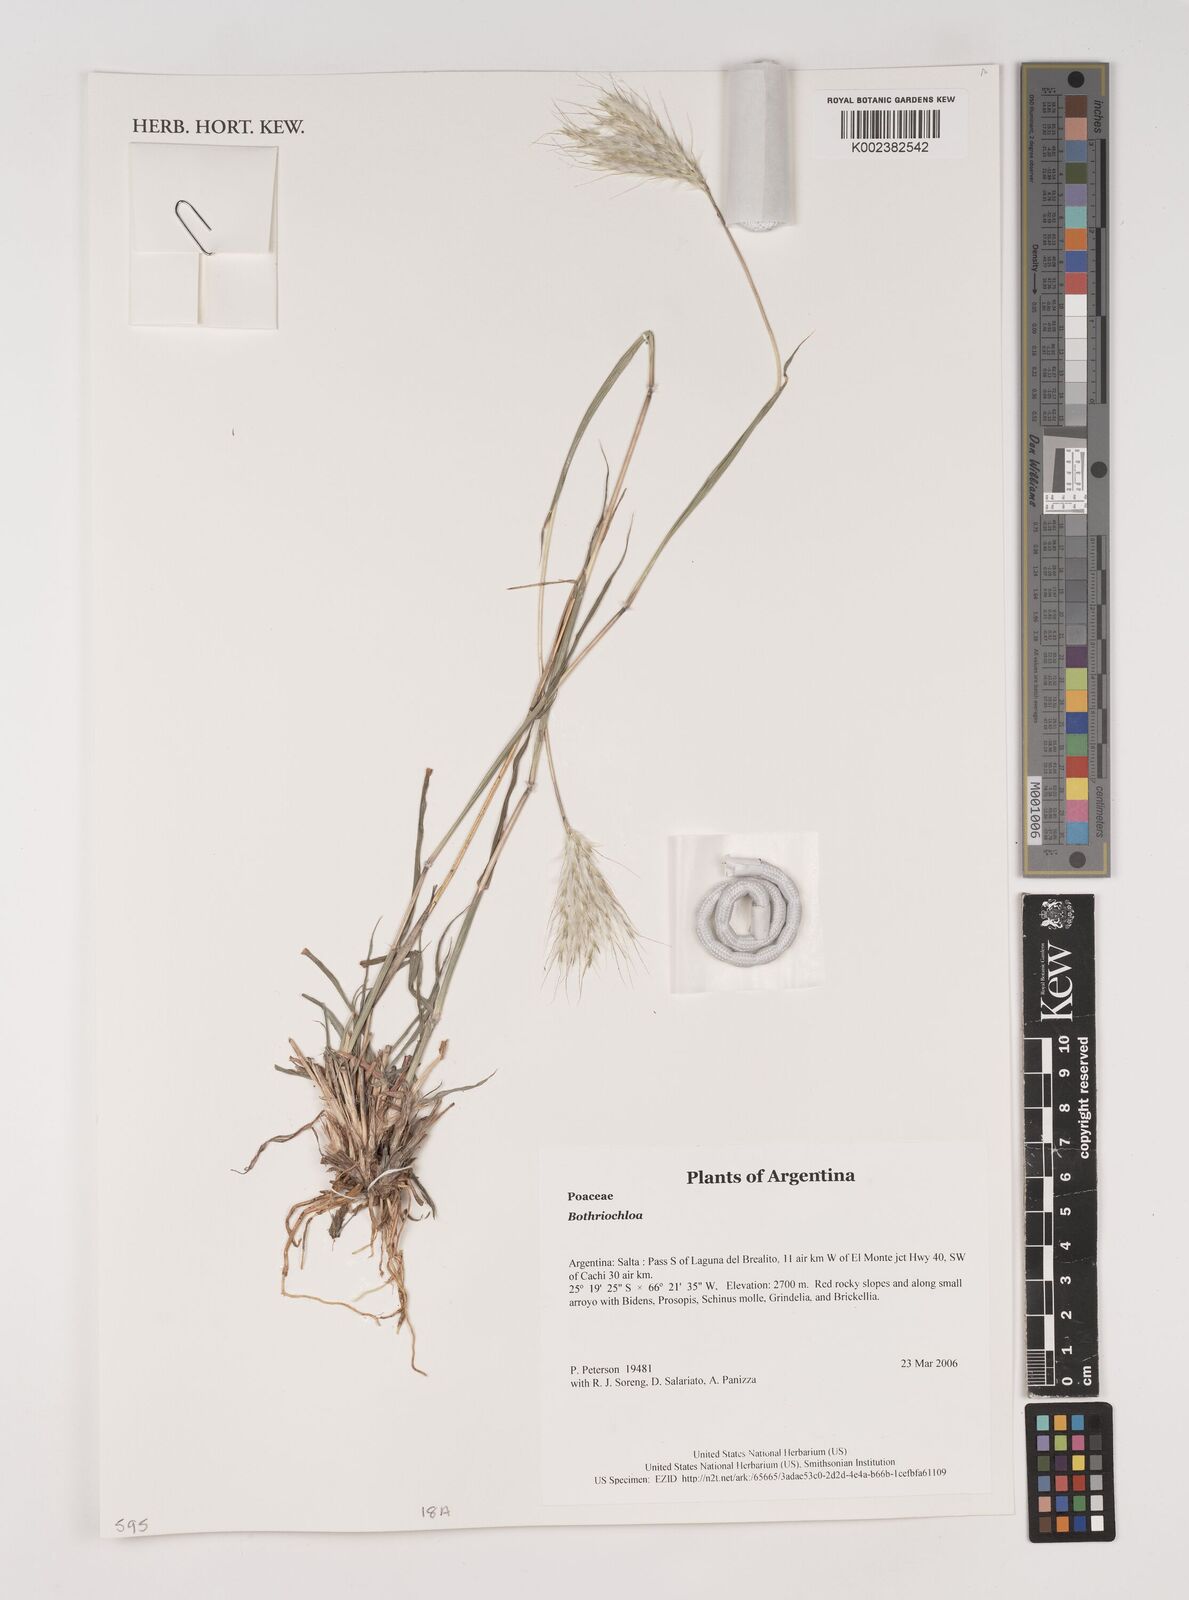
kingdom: Plantae
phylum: Tracheophyta
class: Liliopsida
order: Poales
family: Poaceae
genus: Bothriochloa
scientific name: Bothriochloa
